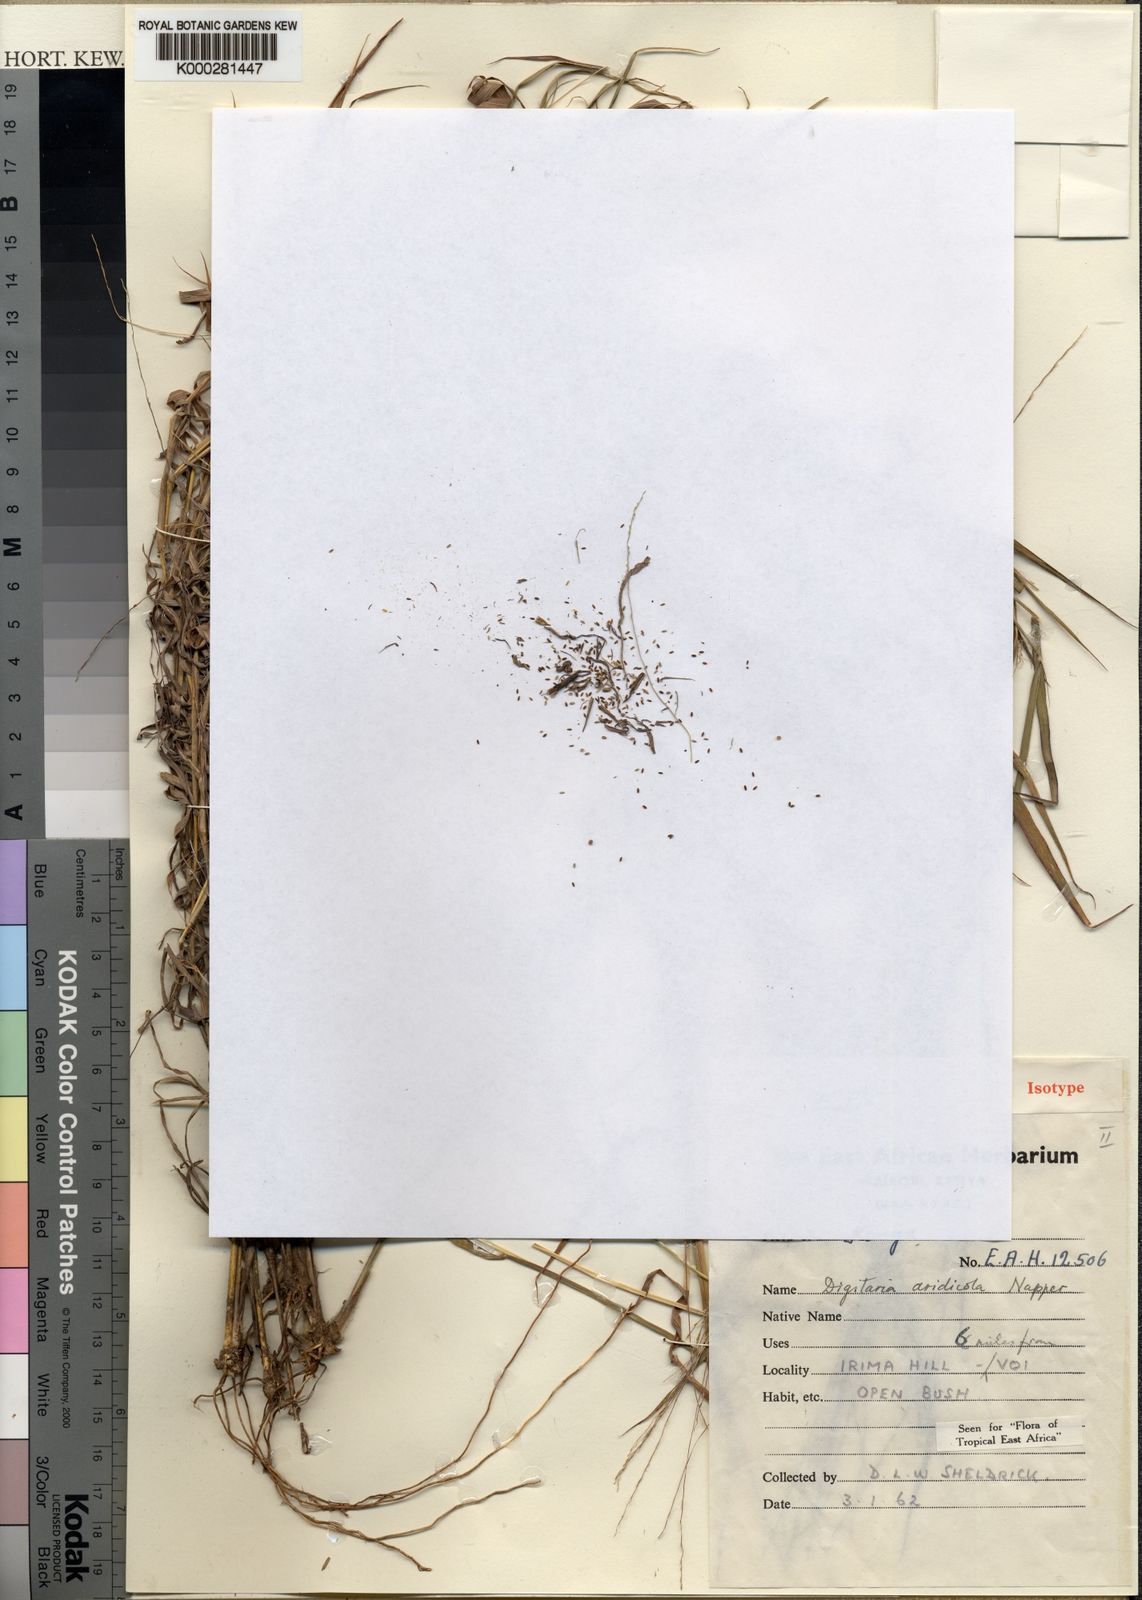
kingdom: Plantae
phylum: Tracheophyta
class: Liliopsida
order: Poales
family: Poaceae
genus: Digitaria
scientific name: Digitaria aridicola
